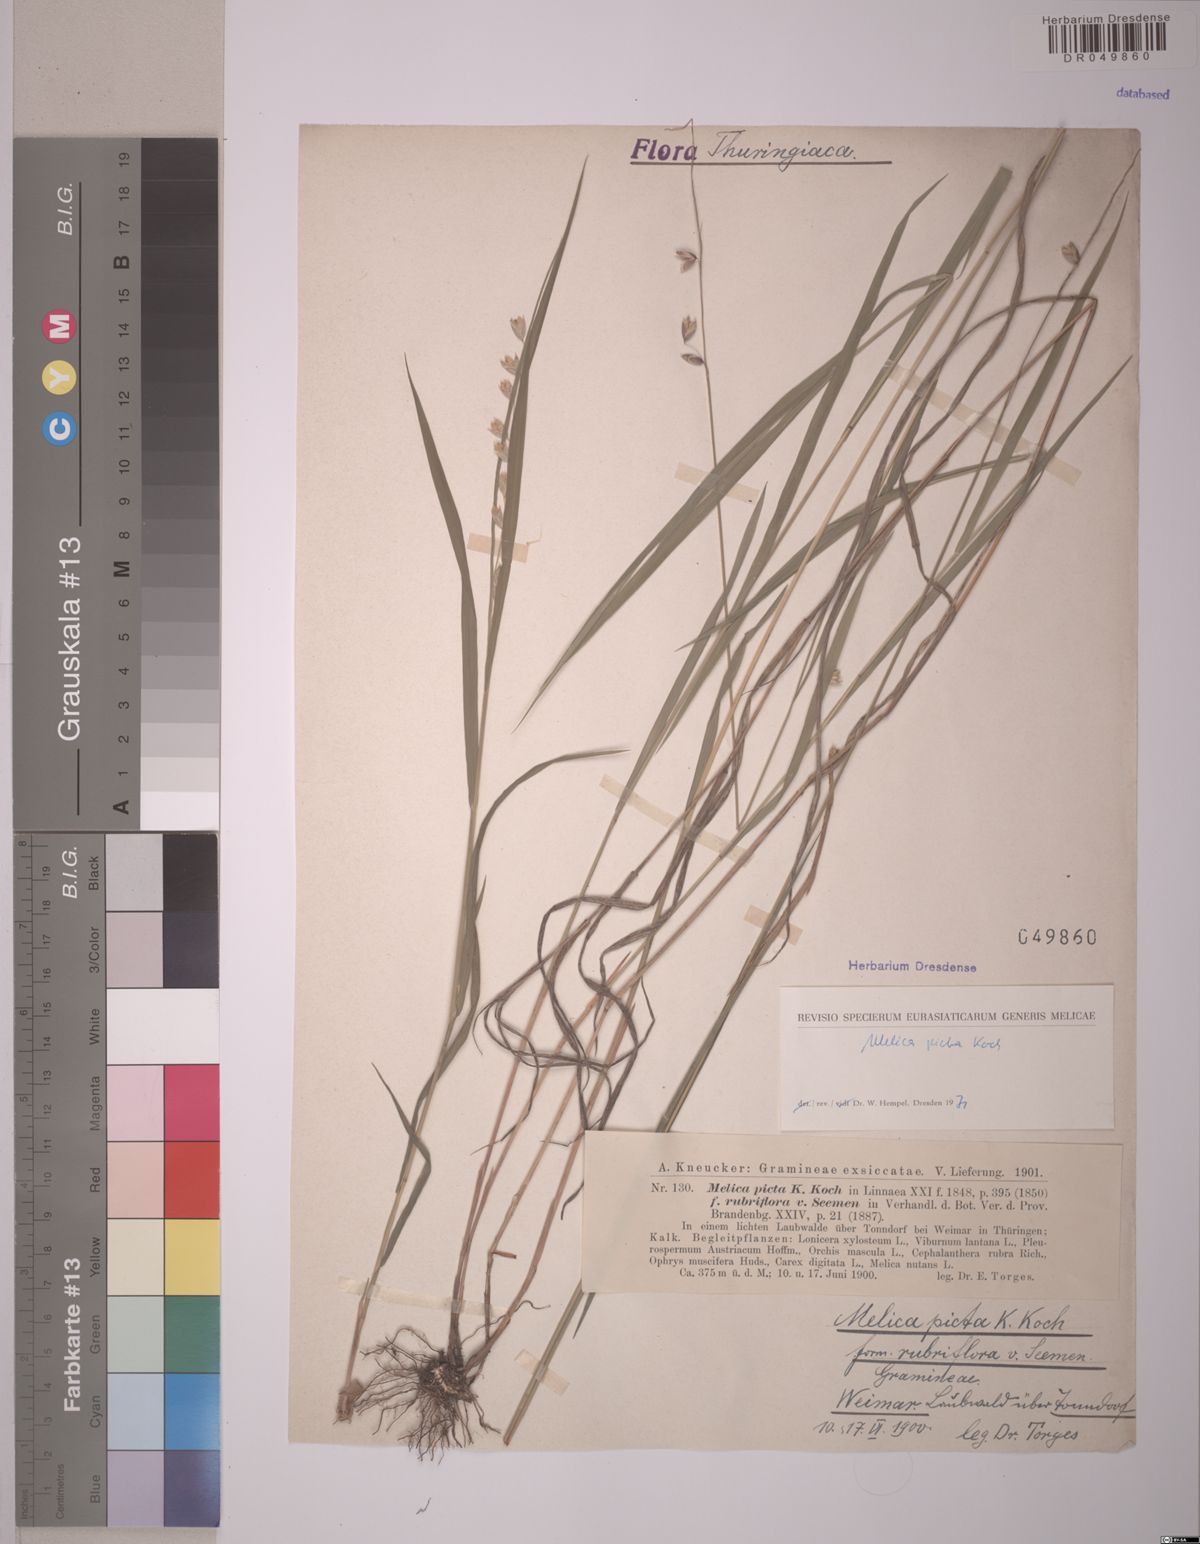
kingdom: Plantae
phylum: Tracheophyta
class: Liliopsida
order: Poales
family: Poaceae
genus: Melica
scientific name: Melica picta
